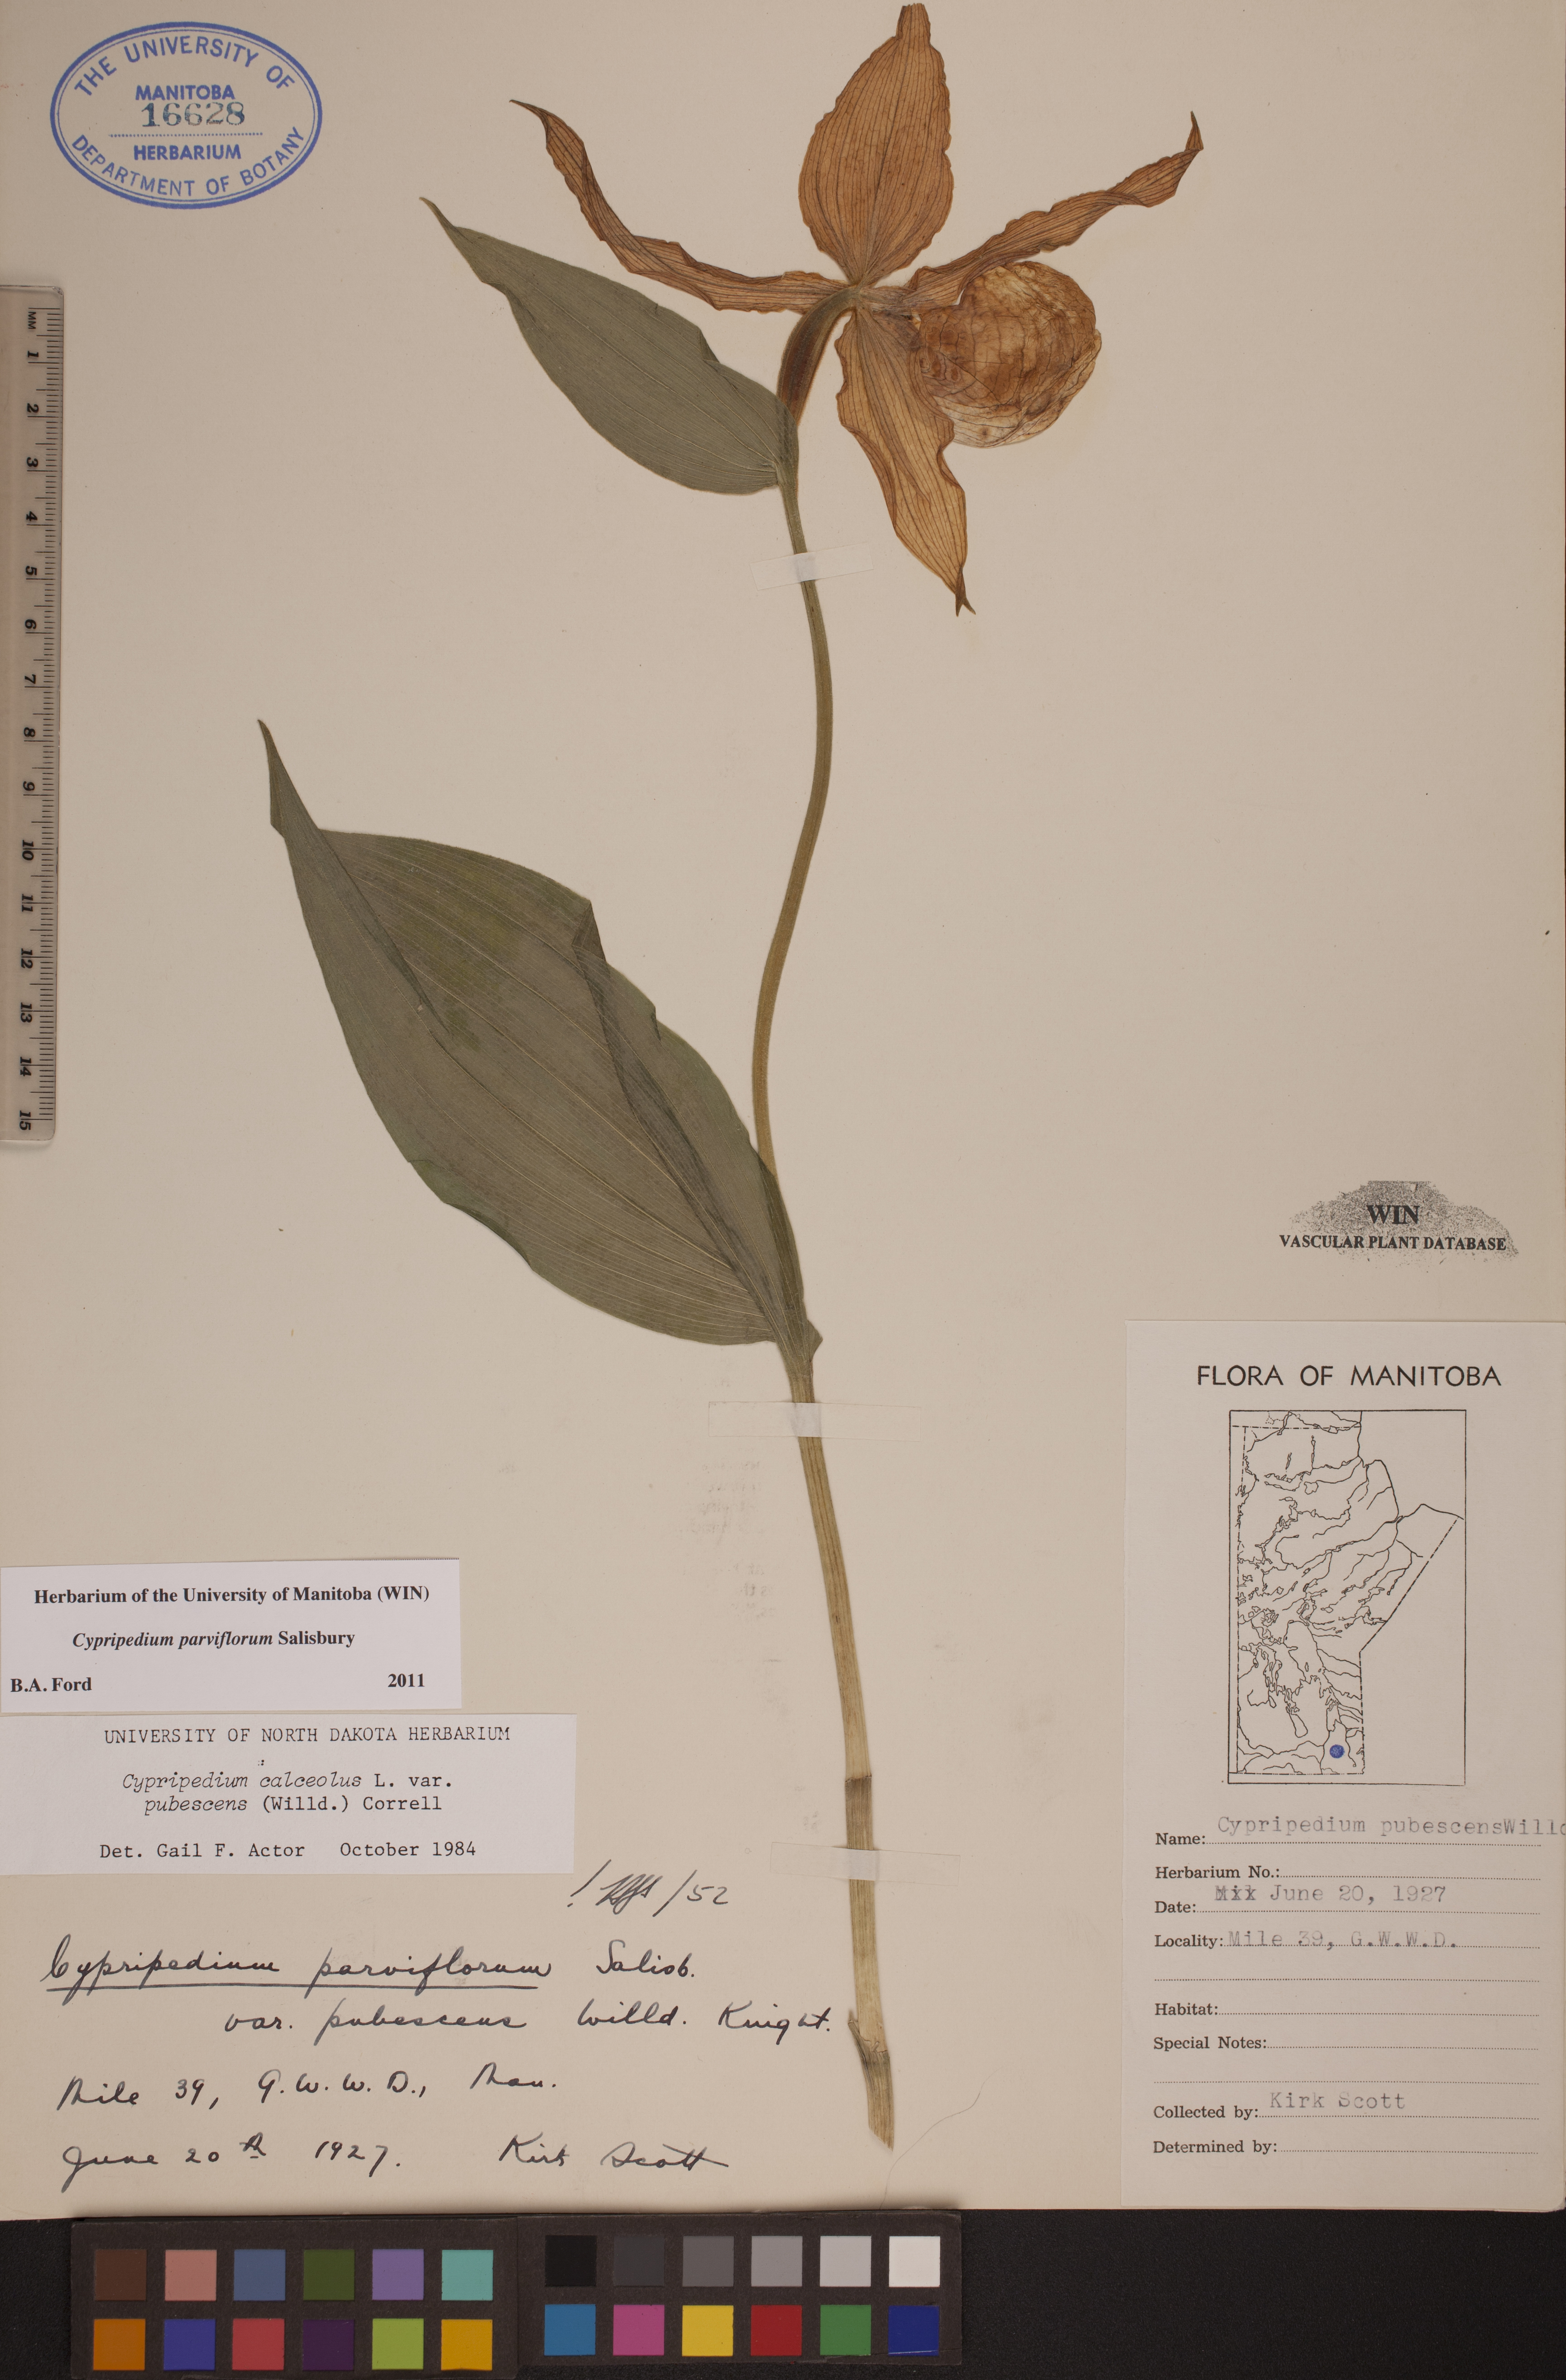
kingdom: Plantae
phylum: Tracheophyta
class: Liliopsida
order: Asparagales
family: Orchidaceae
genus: Cypripedium
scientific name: Cypripedium parviflorum
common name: American yellow lady's-slipper
